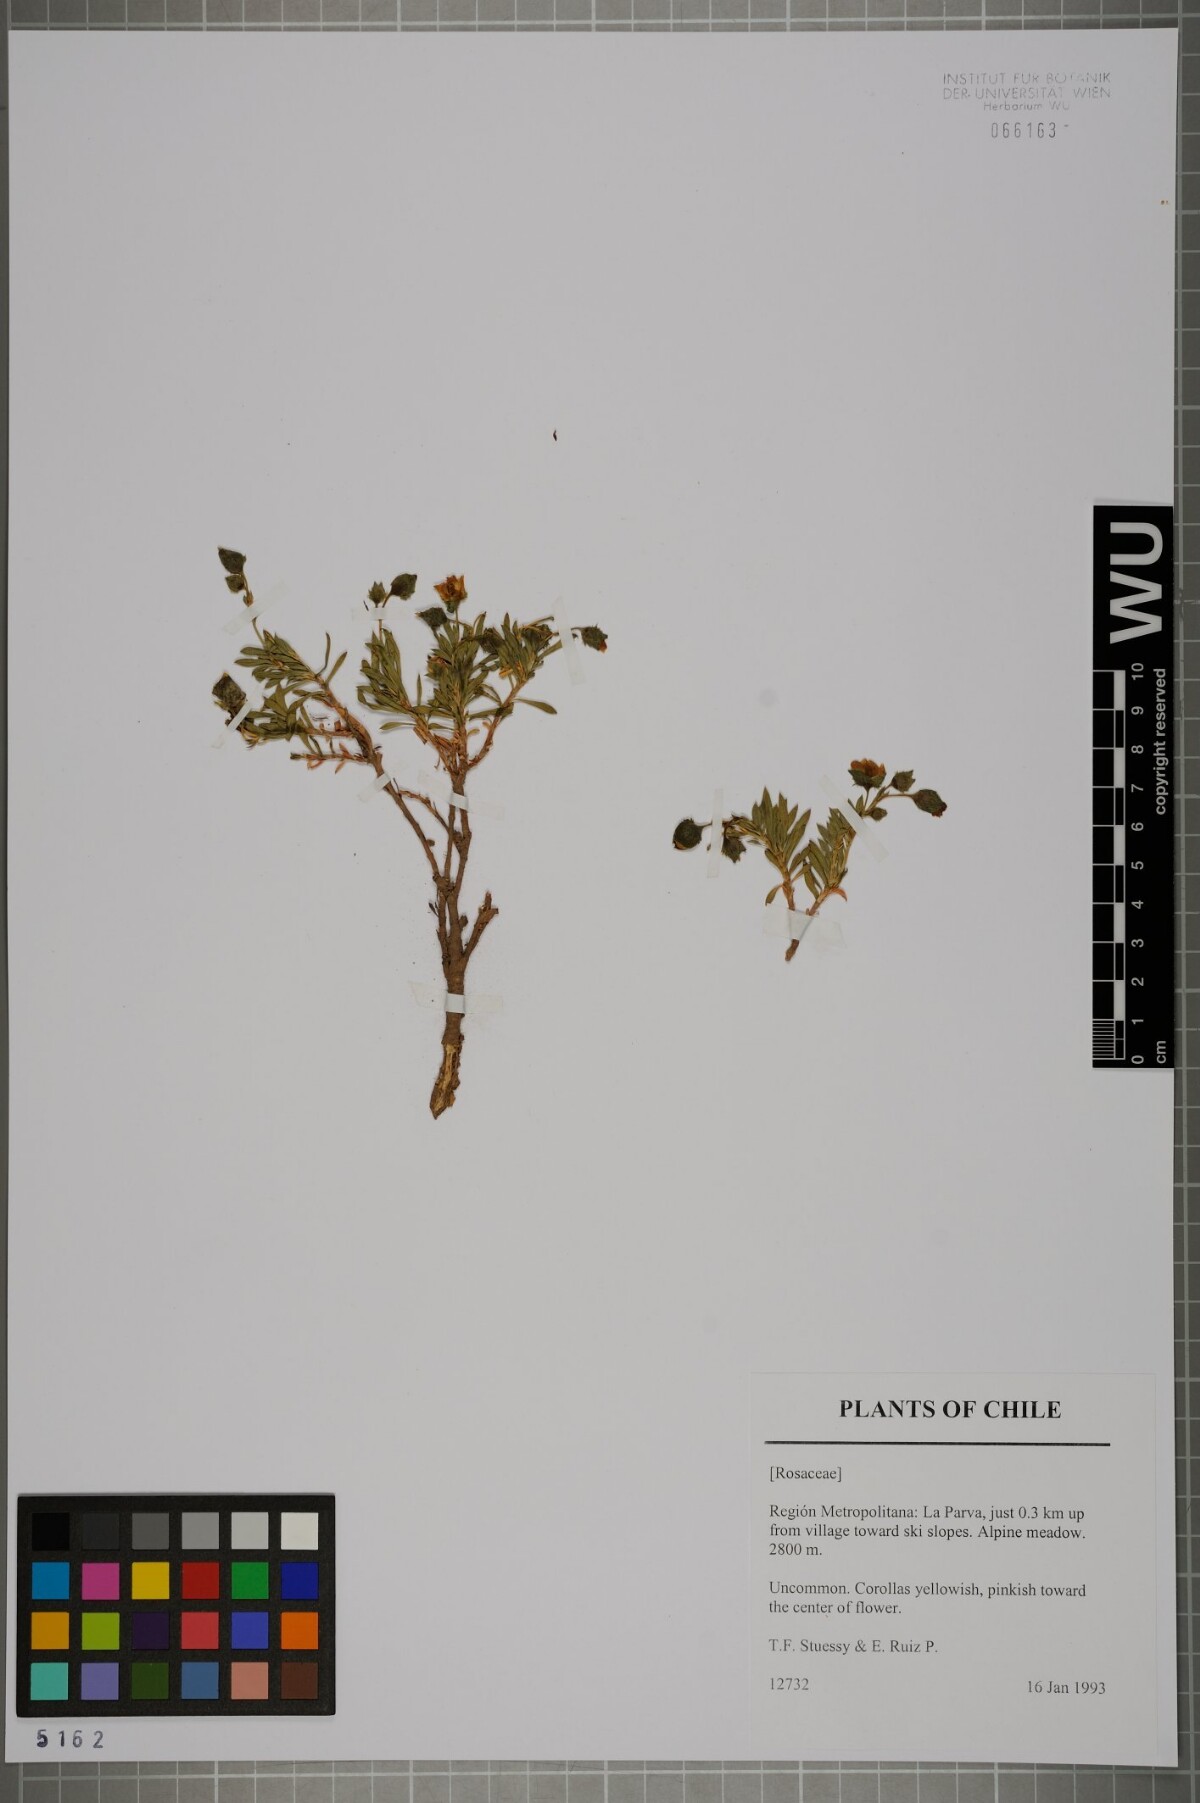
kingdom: Plantae
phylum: Tracheophyta
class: Magnoliopsida
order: Rosales
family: Rosaceae
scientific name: Rosaceae
